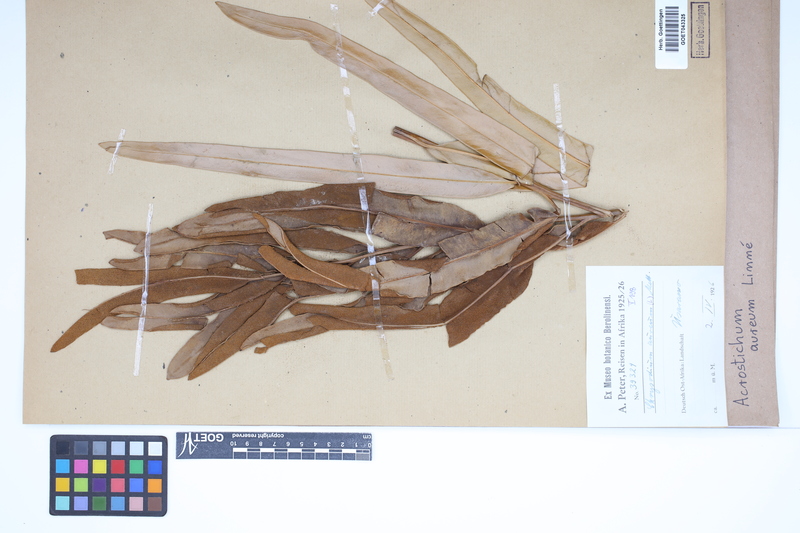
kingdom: Plantae
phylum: Tracheophyta
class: Polypodiopsida
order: Polypodiales
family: Pteridaceae
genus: Acrostichum
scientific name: Acrostichum aureum
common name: Leather fern
